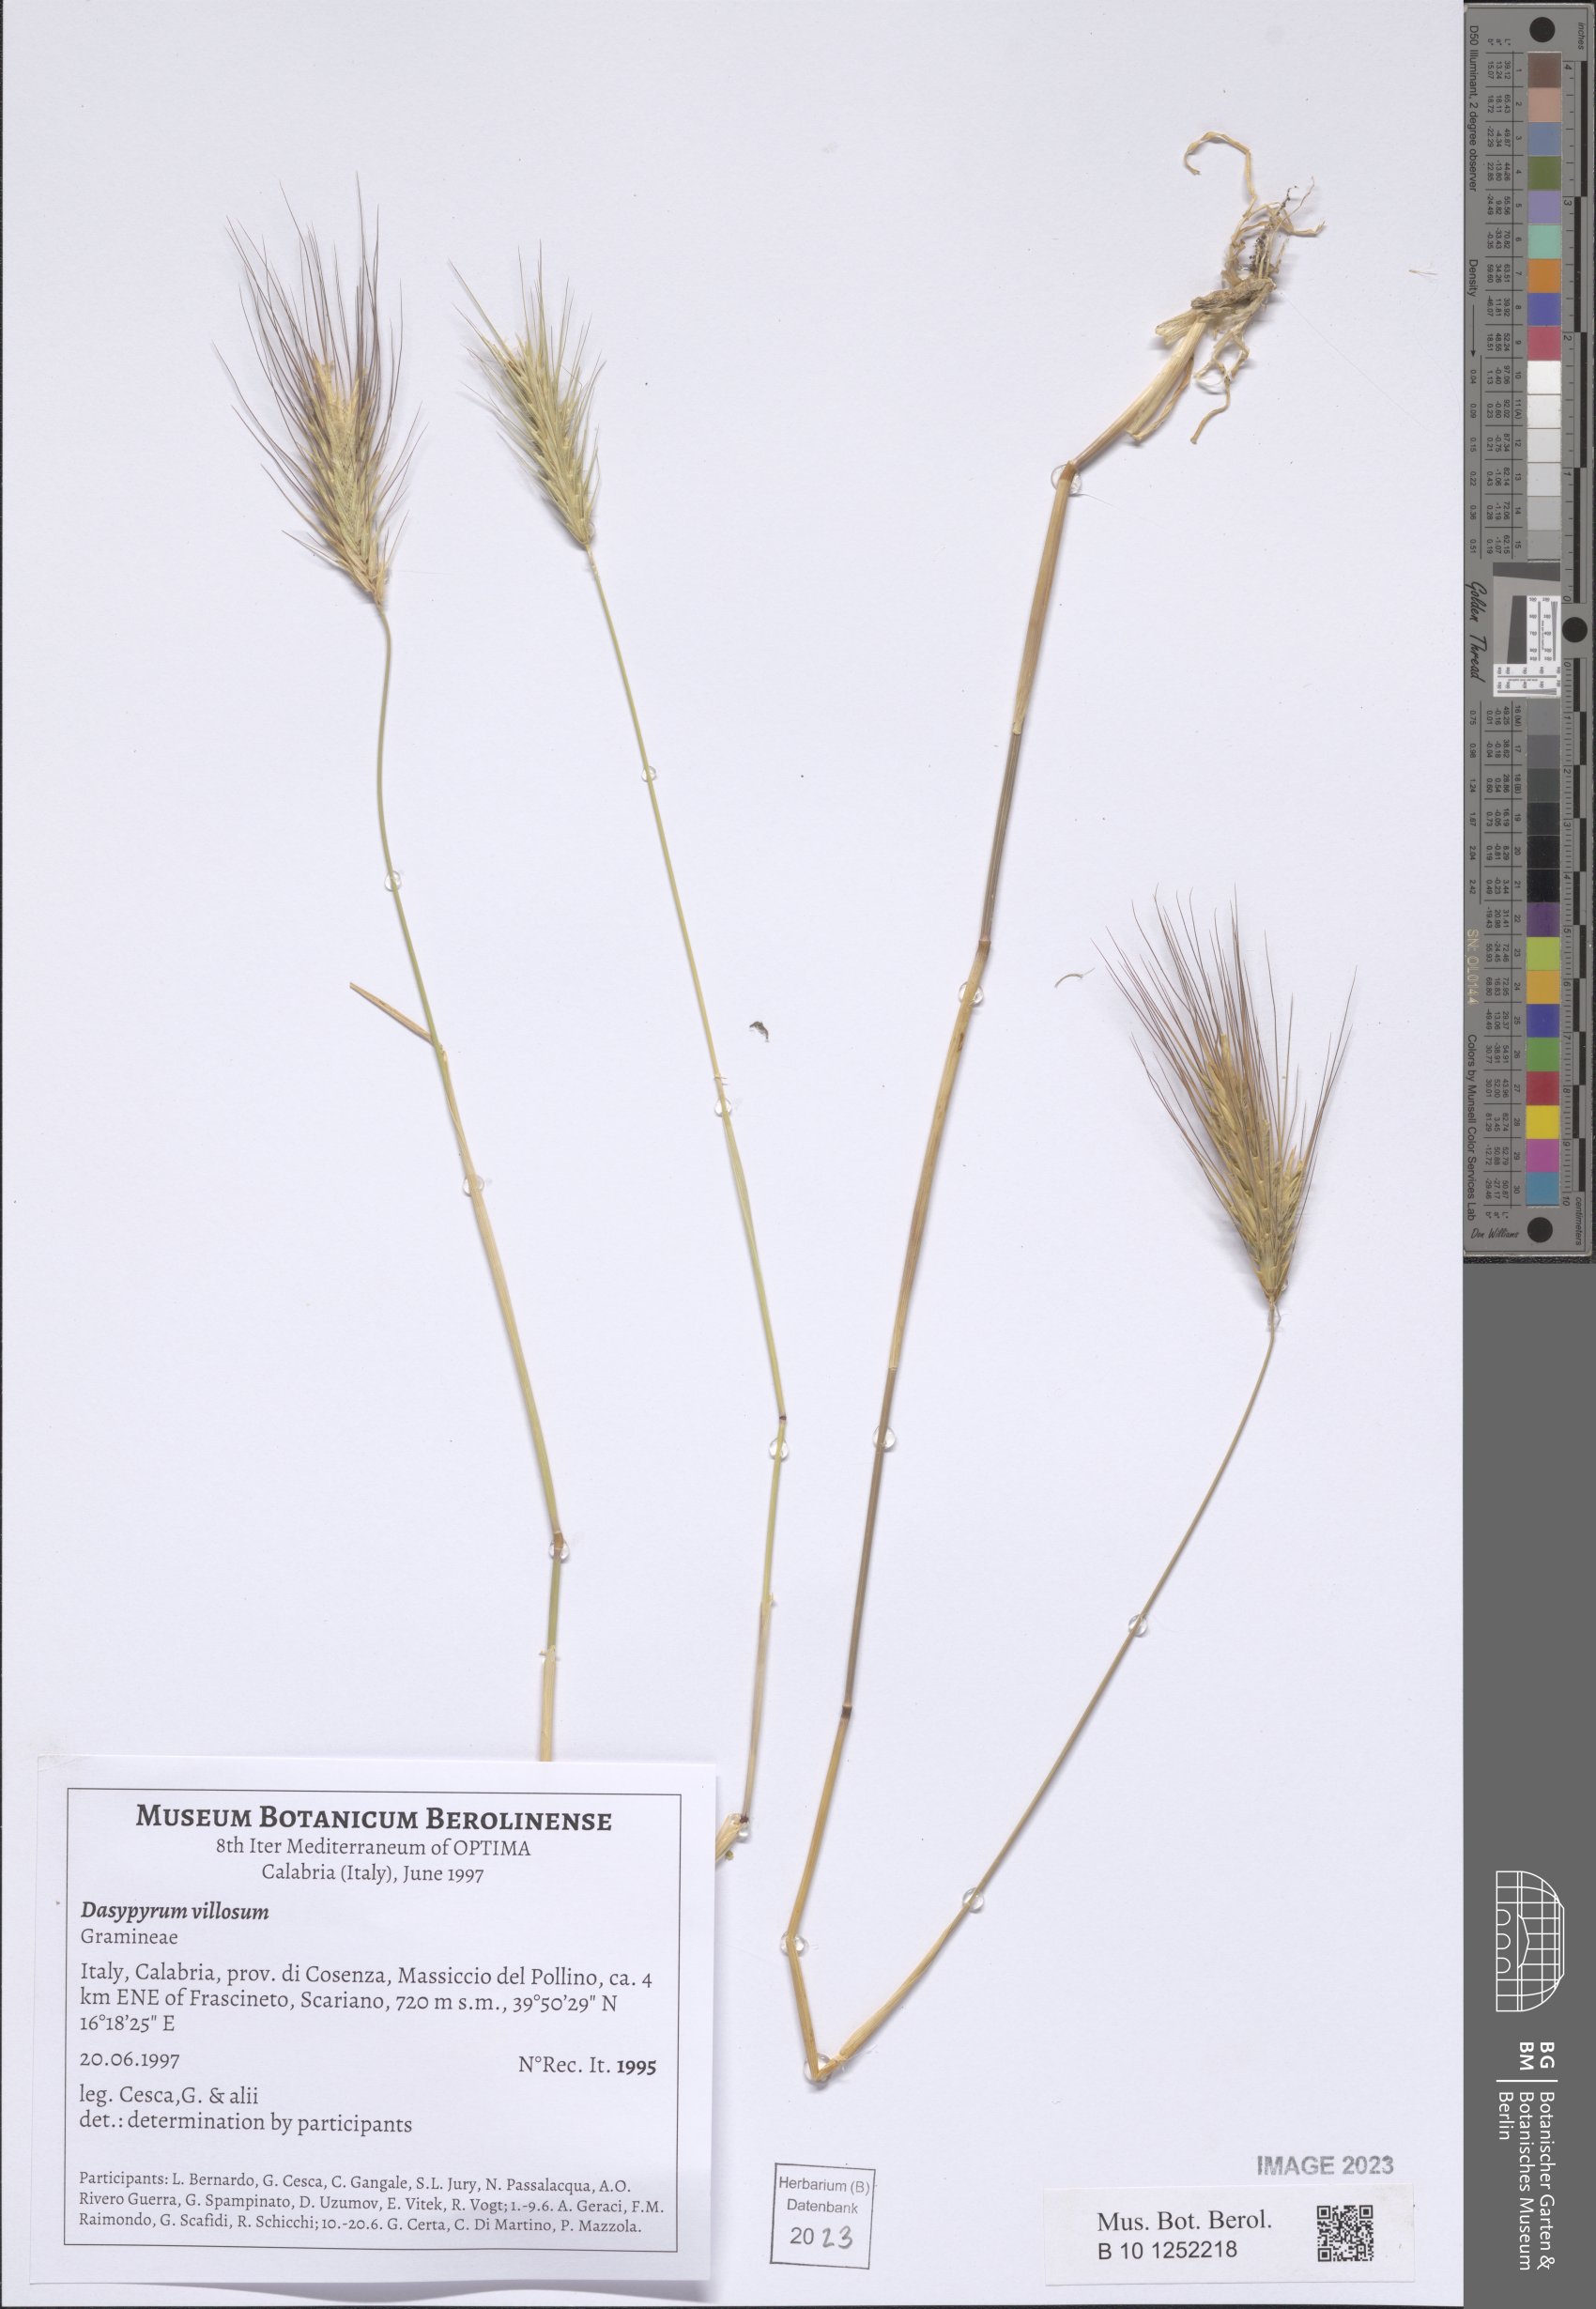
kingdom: Plantae
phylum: Tracheophyta
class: Liliopsida
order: Poales
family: Poaceae
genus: Dasypyrum
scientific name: Dasypyrum villosum
